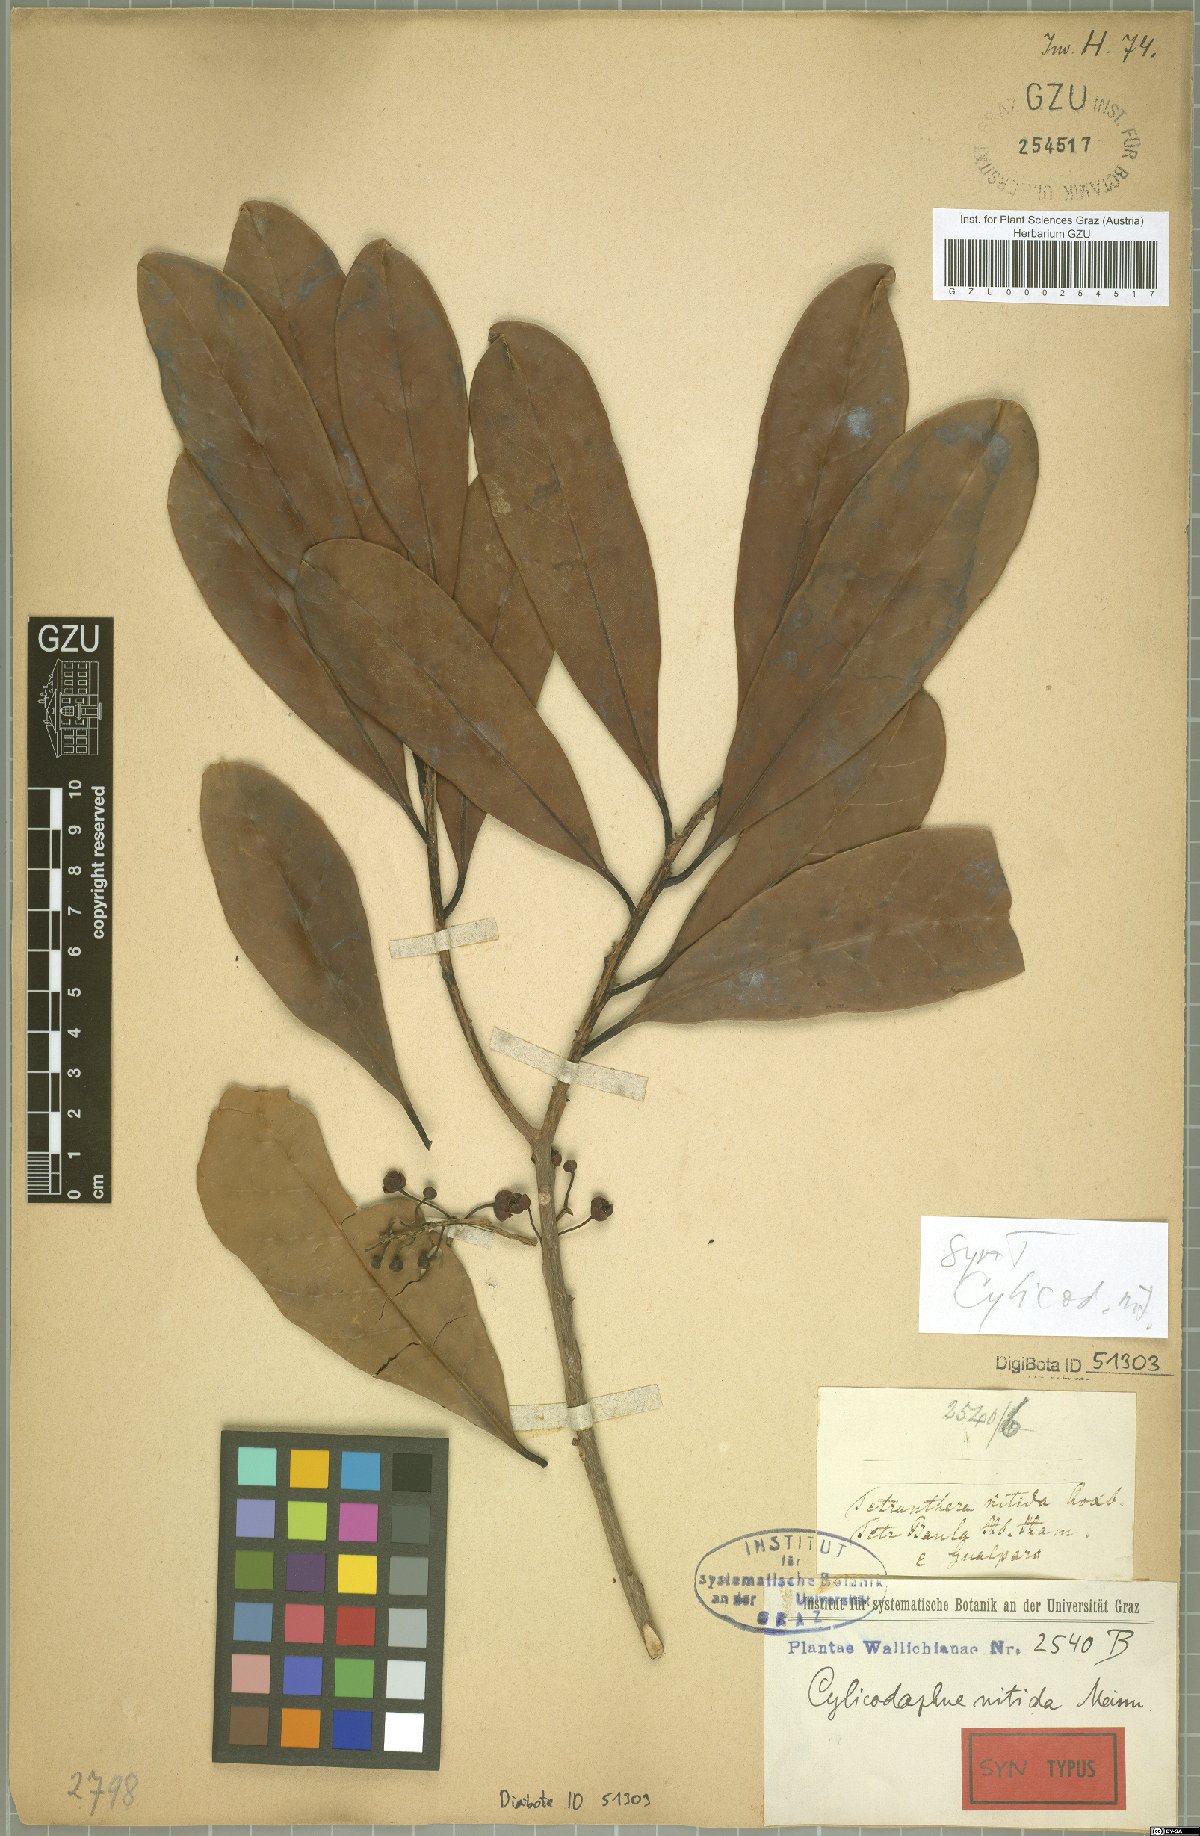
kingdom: Plantae
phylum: Tracheophyta
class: Magnoliopsida
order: Laurales
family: Lauraceae
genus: Litsea
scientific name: Litsea nitida
